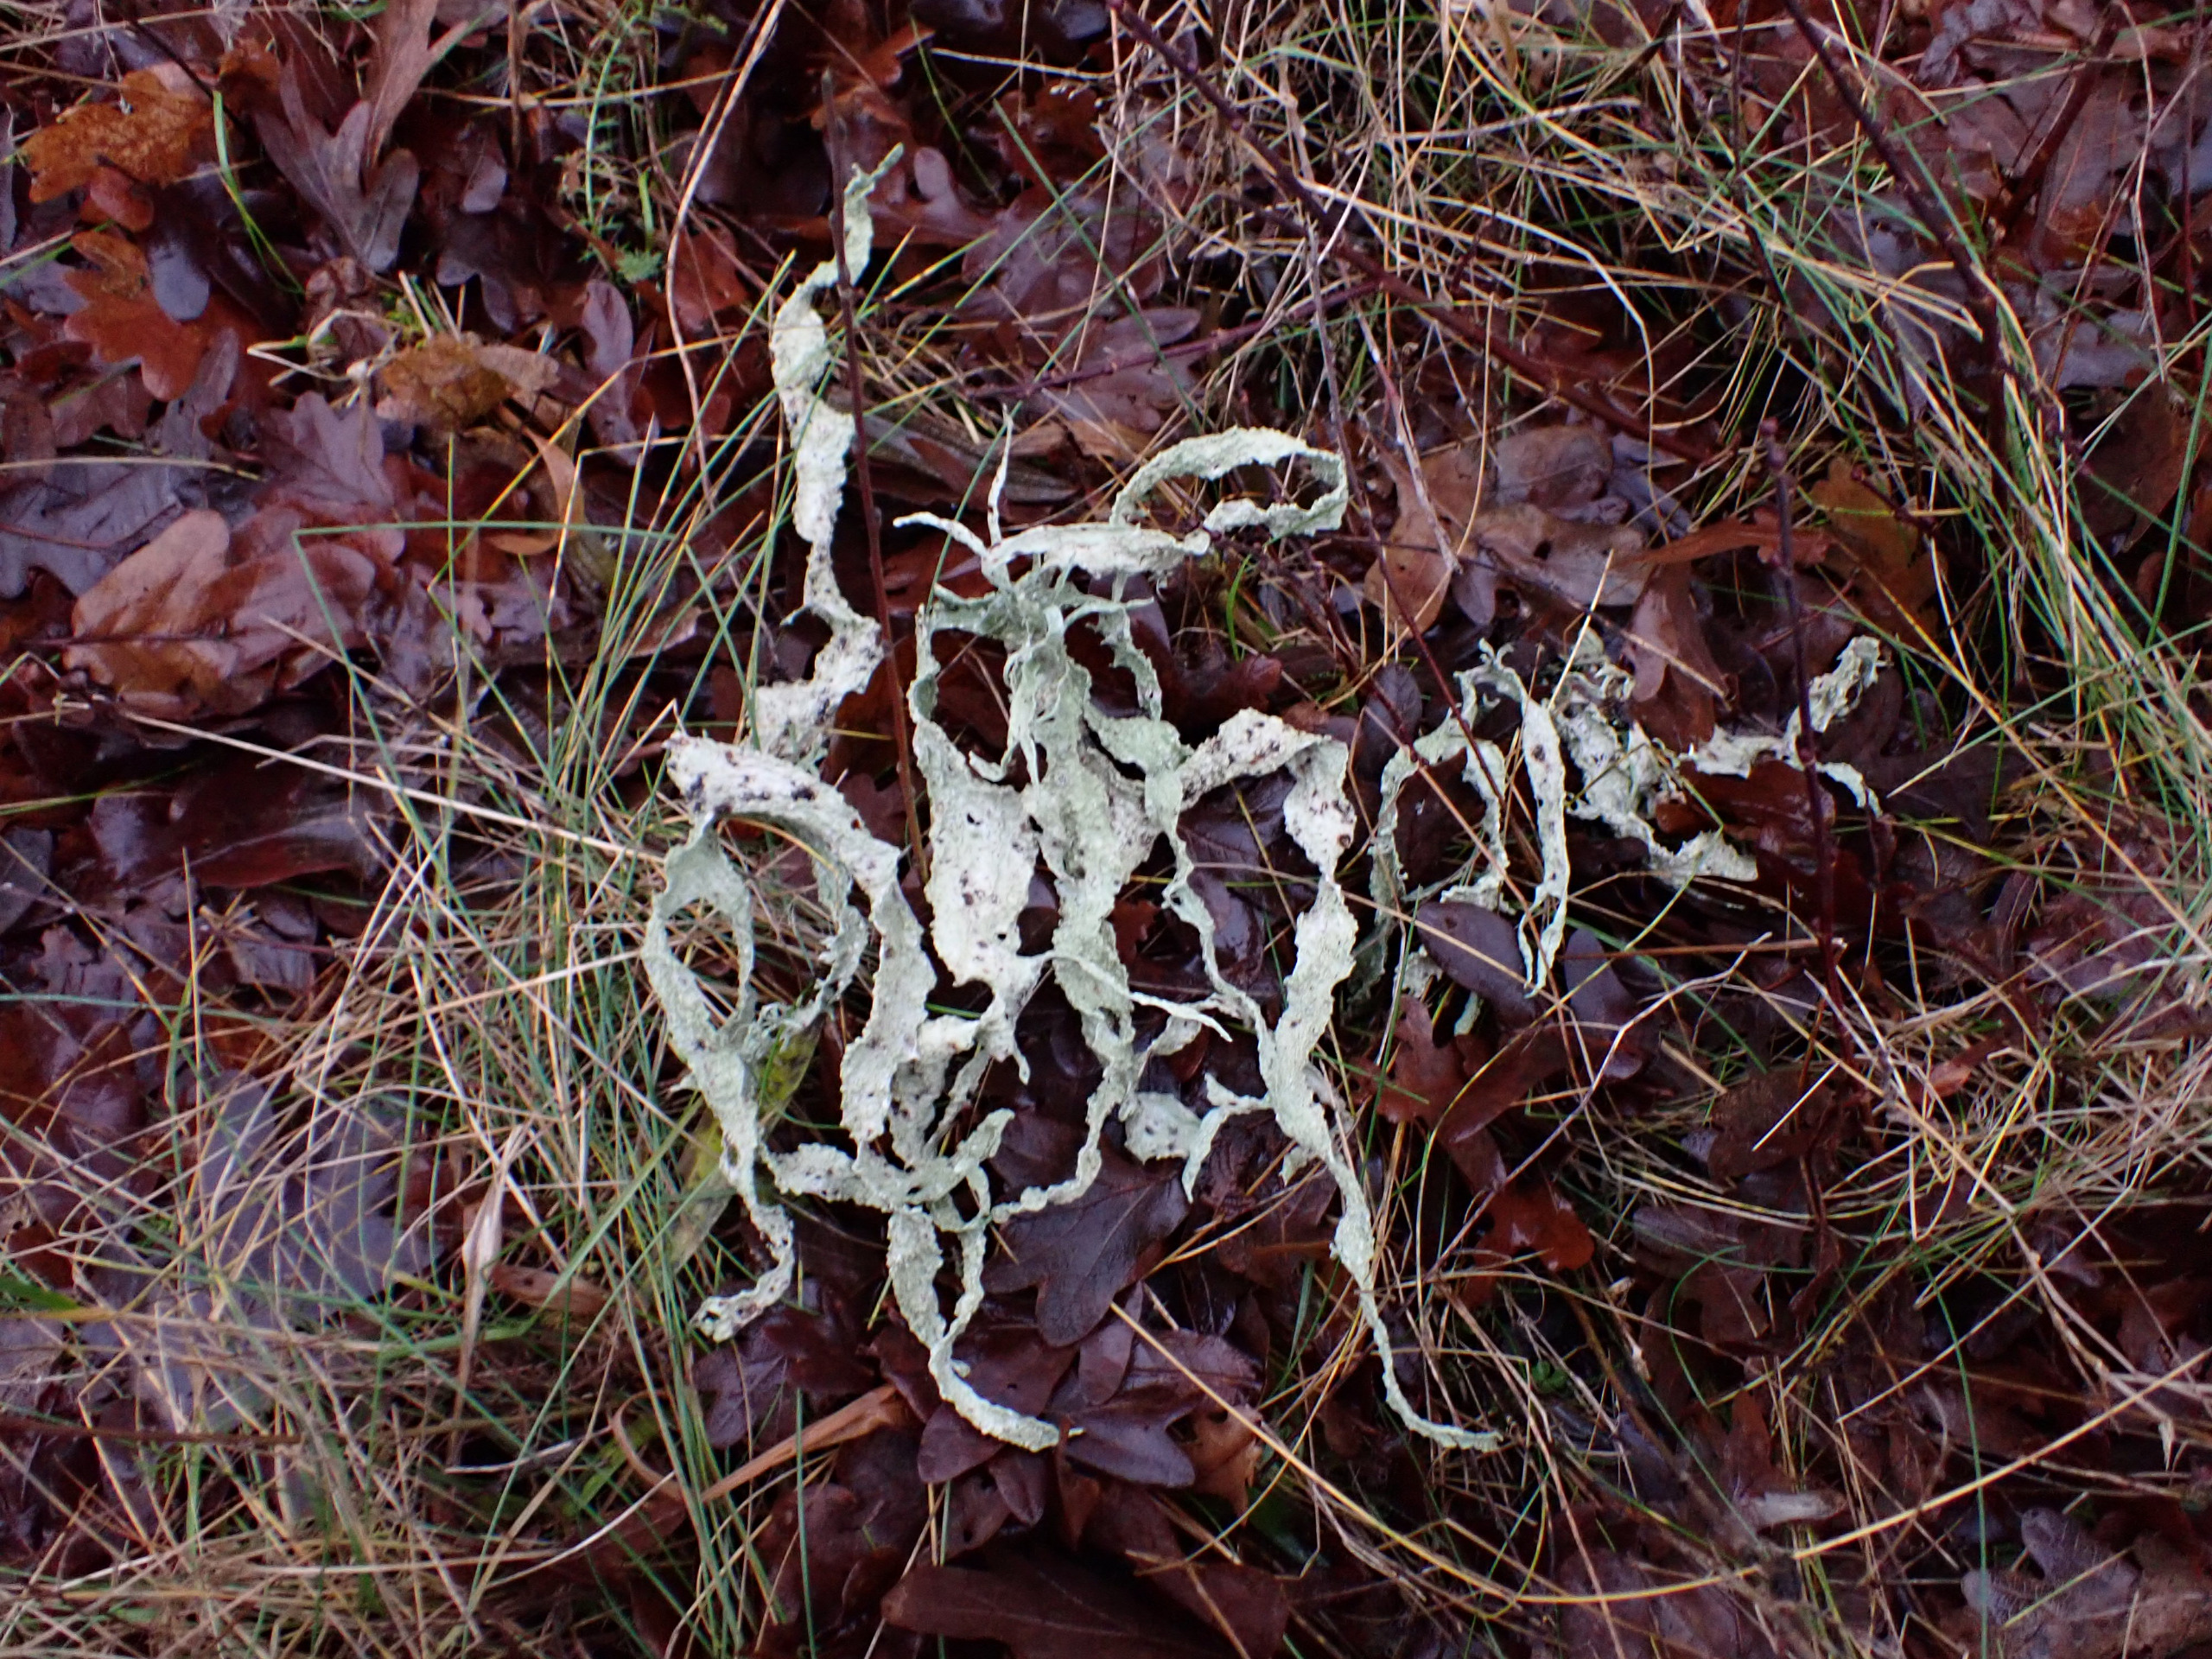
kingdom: Fungi
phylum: Ascomycota
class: Lecanoromycetes
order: Lecanorales
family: Ramalinaceae
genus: Ramalina
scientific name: Ramalina fraxinea
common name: Stor grenlav
